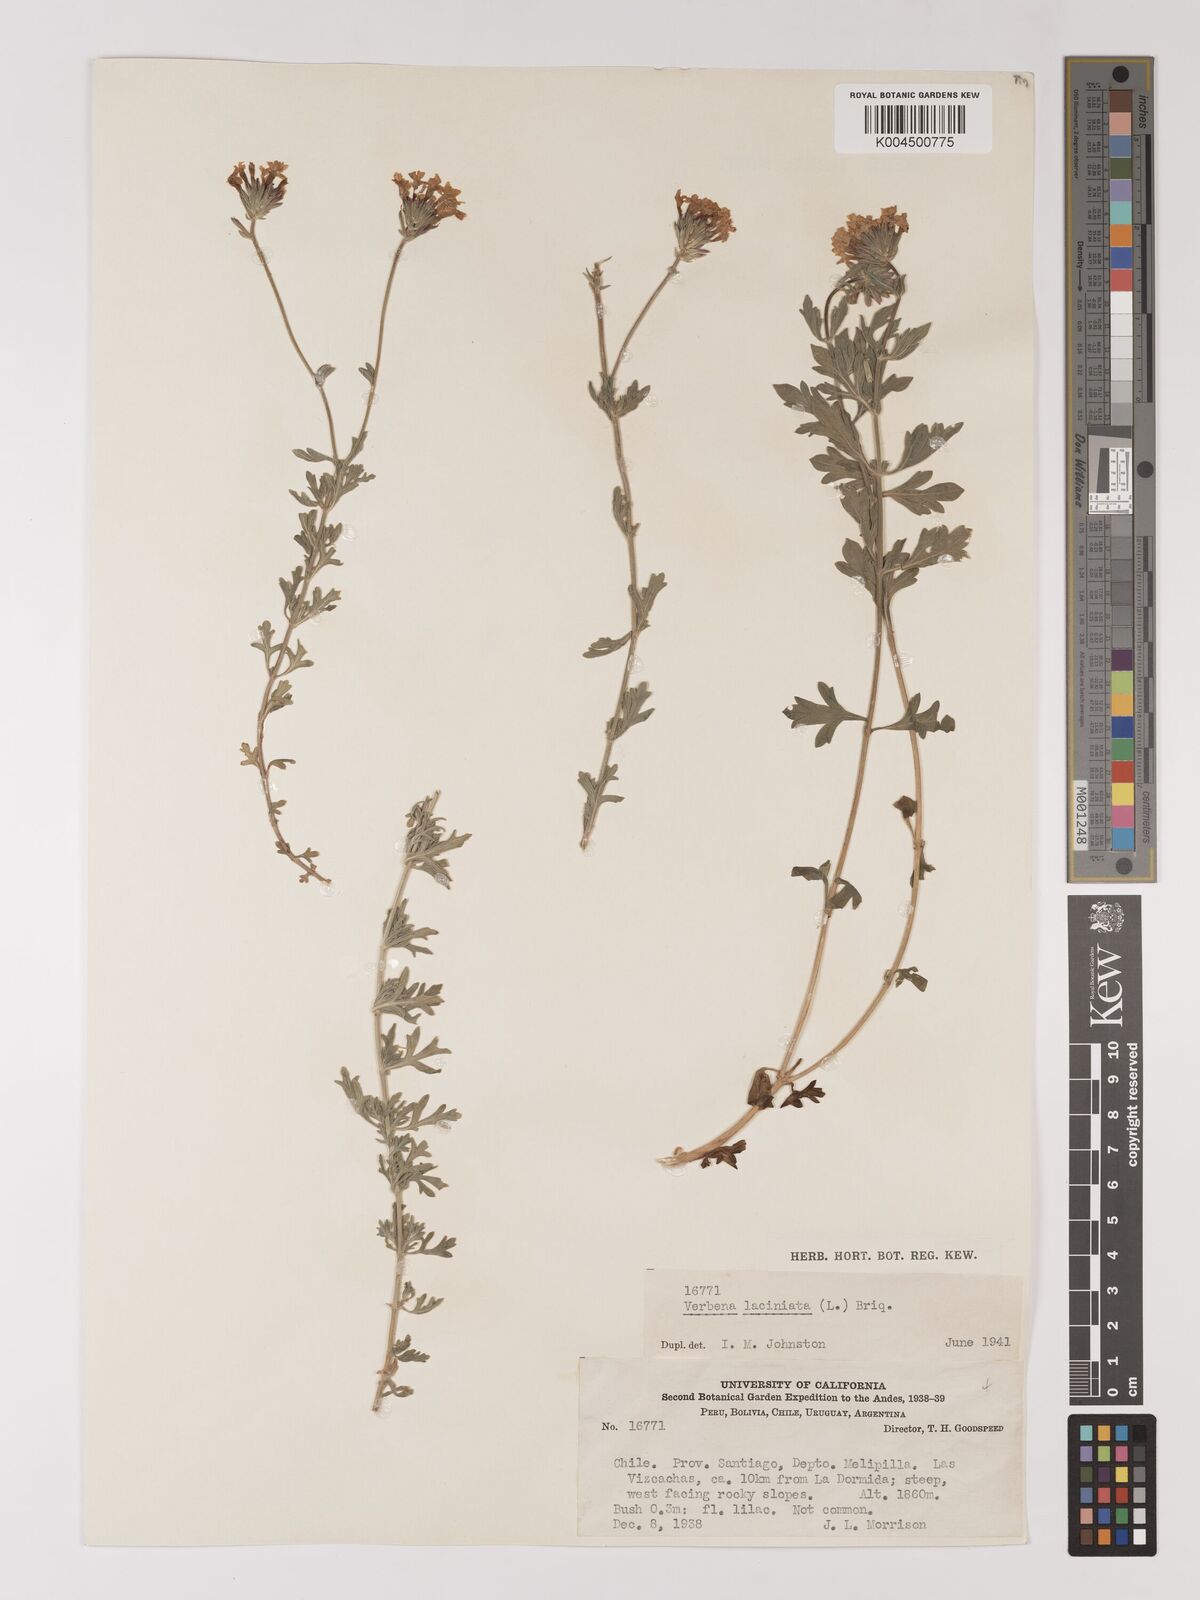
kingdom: Plantae
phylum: Tracheophyta
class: Magnoliopsida
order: Lamiales
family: Verbenaceae
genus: Verbena
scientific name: Verbena laciniata
